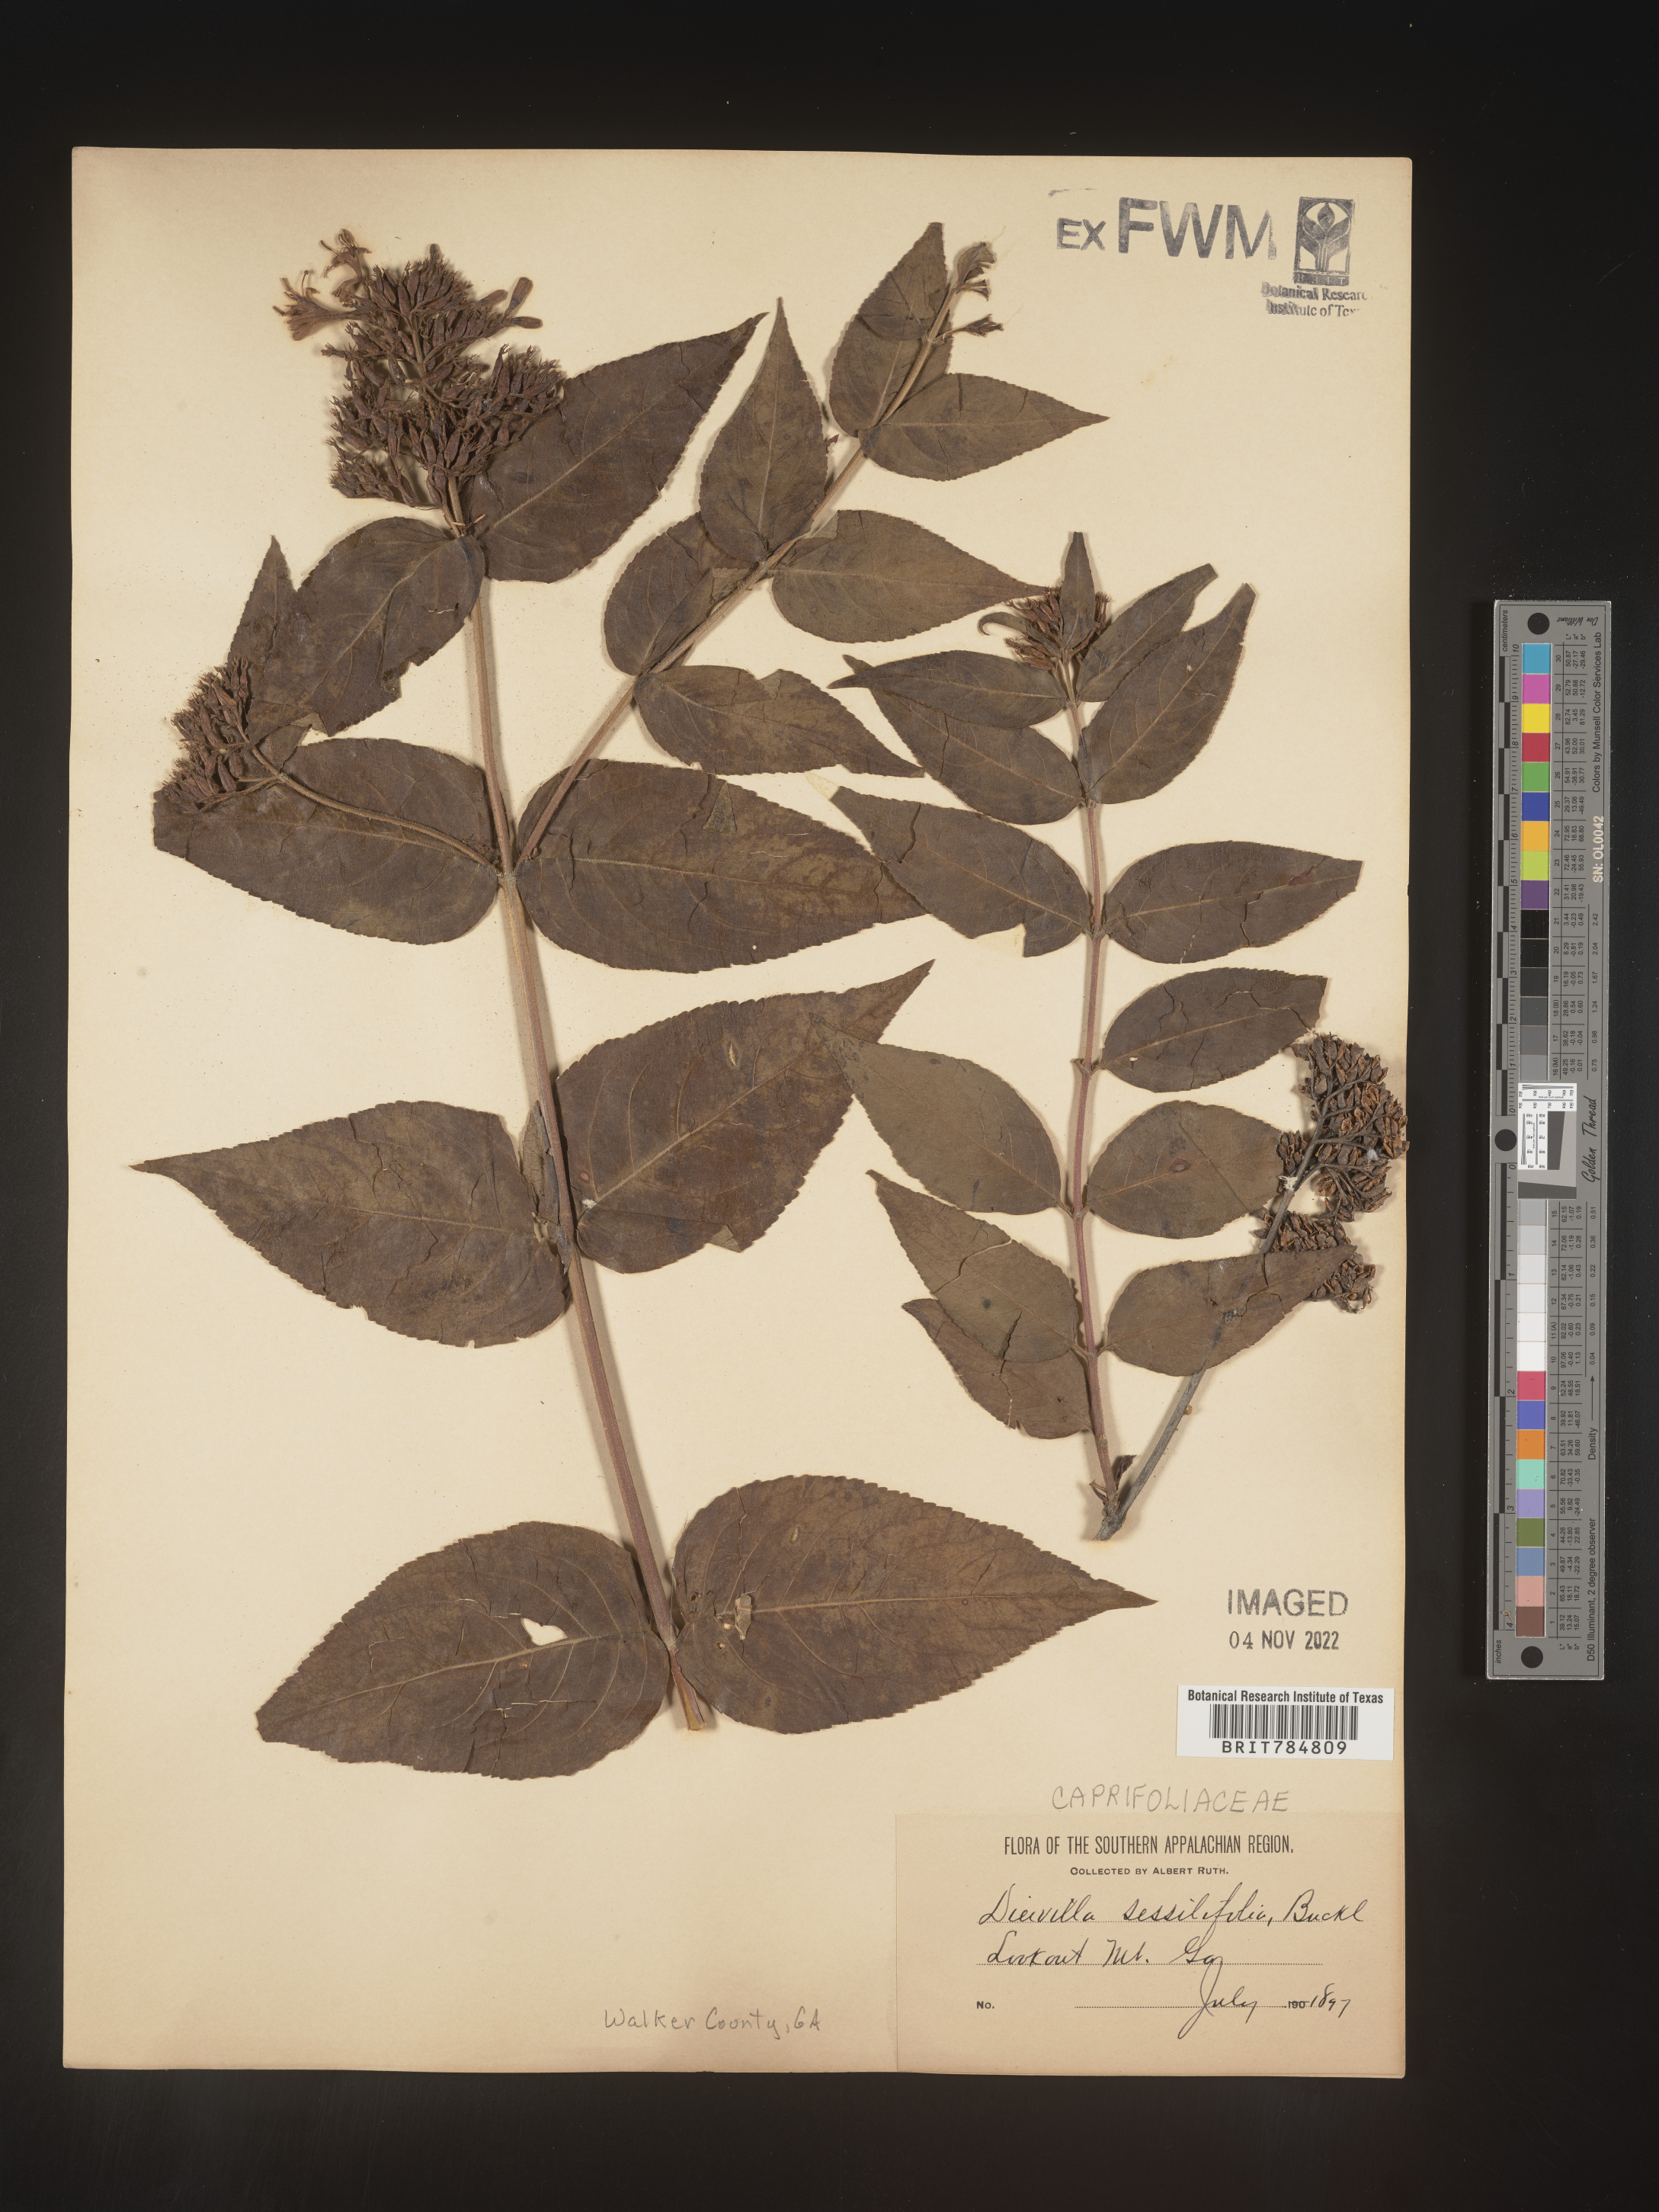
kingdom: Plantae
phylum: Tracheophyta
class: Magnoliopsida
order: Dipsacales
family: Caprifoliaceae
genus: Diervilla
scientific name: Diervilla
